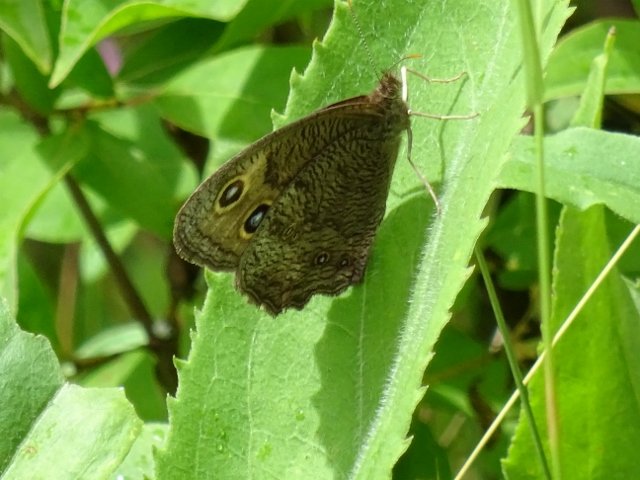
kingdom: Animalia
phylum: Arthropoda
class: Insecta
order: Lepidoptera
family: Nymphalidae
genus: Cercyonis
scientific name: Cercyonis pegala
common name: Common Wood-Nymph
